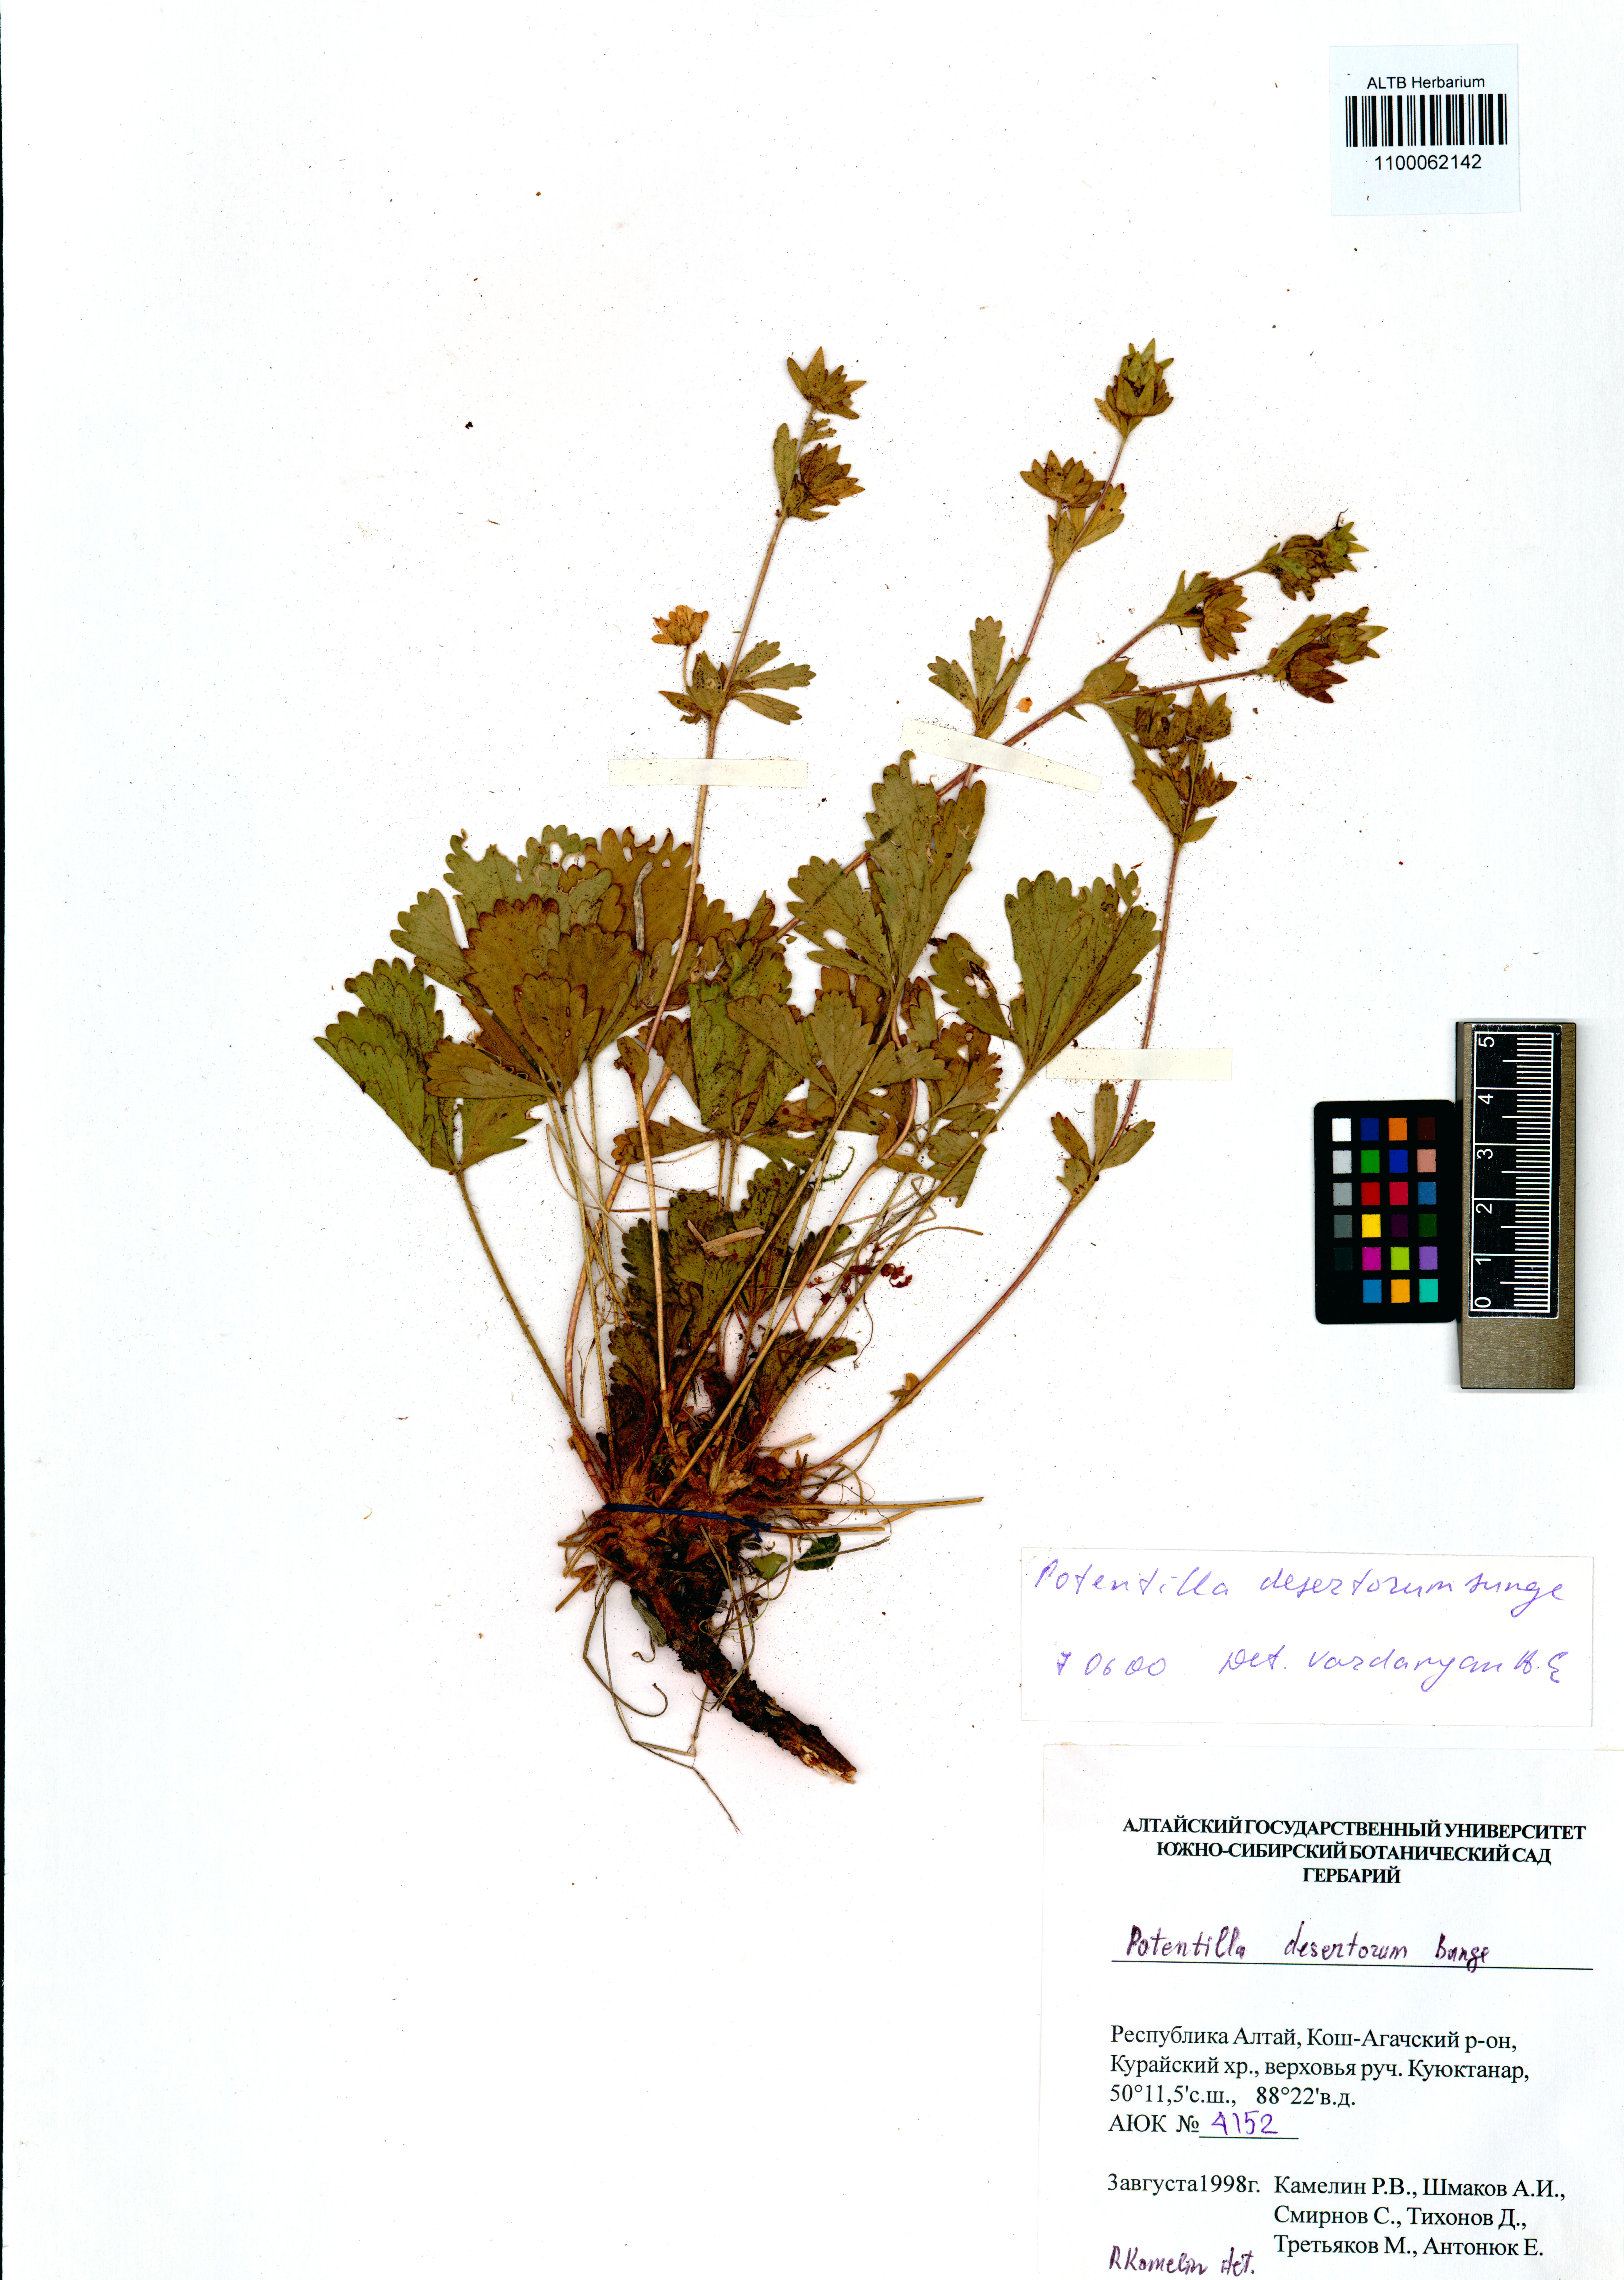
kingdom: Plantae
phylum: Tracheophyta
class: Magnoliopsida
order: Rosales
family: Rosaceae
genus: Potentilla
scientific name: Potentilla desertorum
